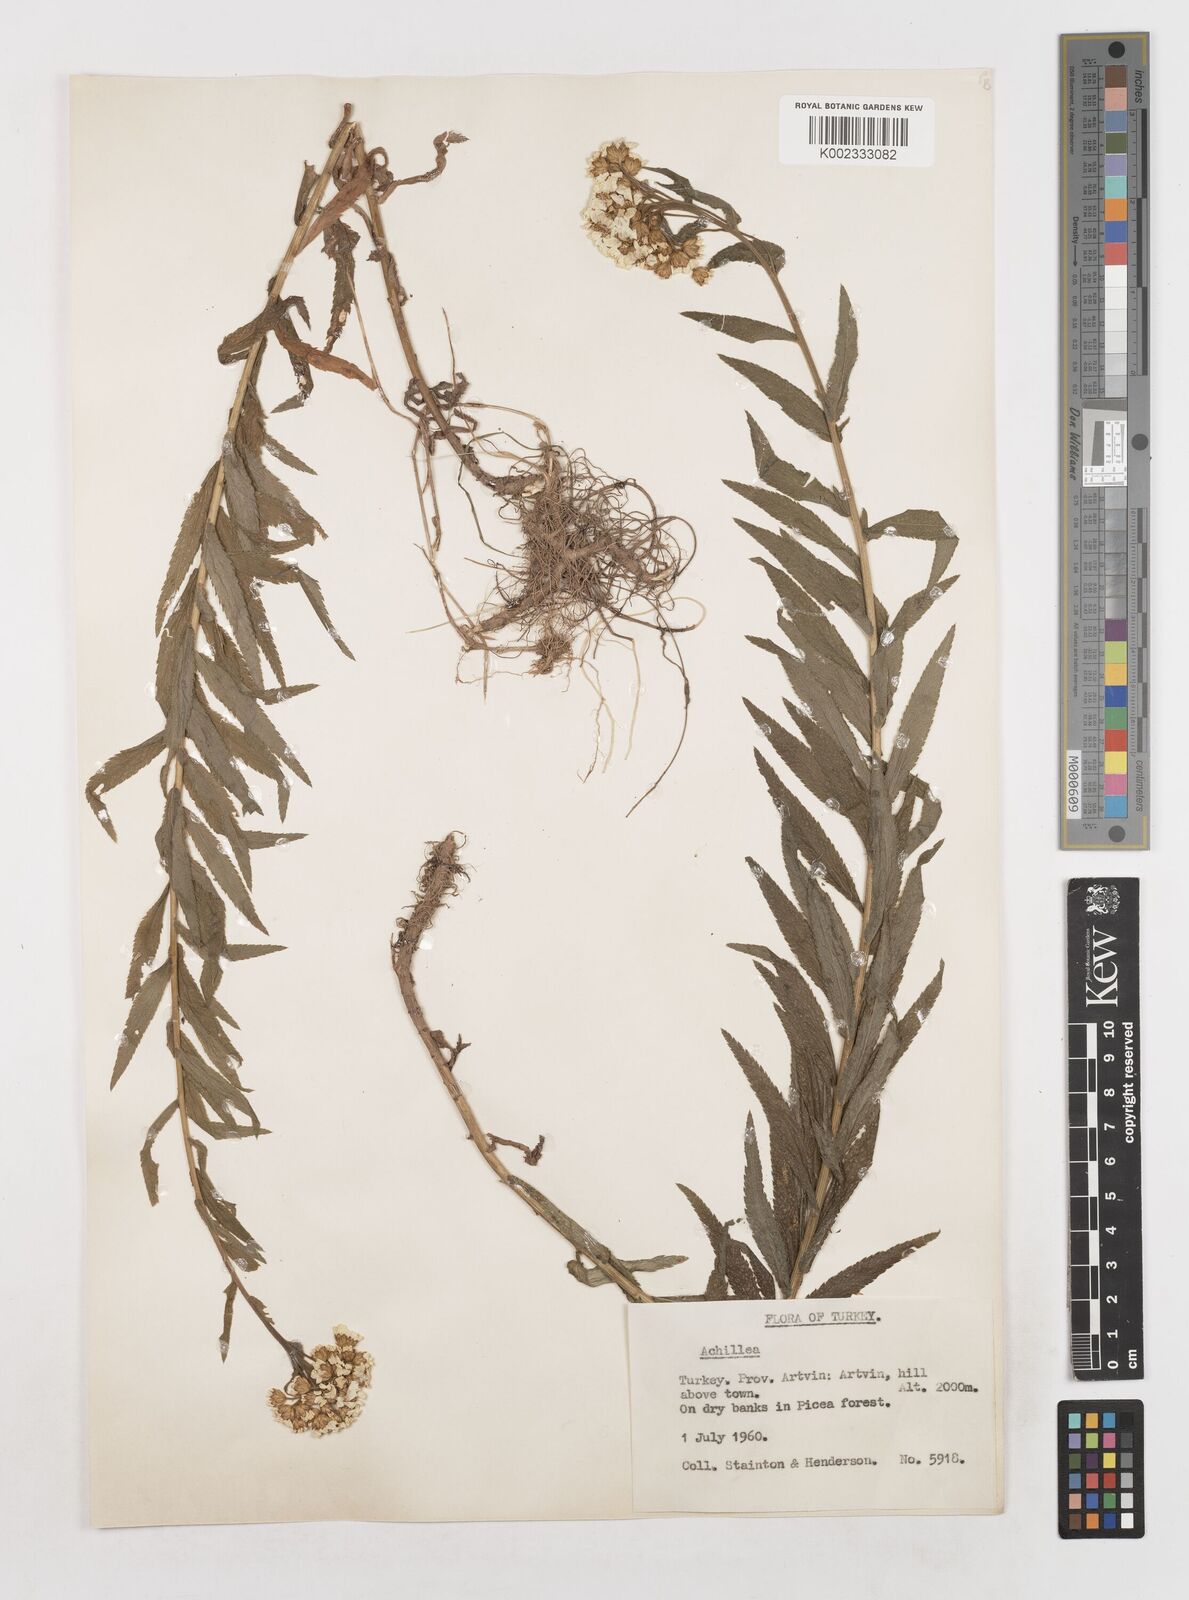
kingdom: Plantae
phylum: Tracheophyta
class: Magnoliopsida
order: Asterales
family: Asteraceae
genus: Achillea
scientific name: Achillea
